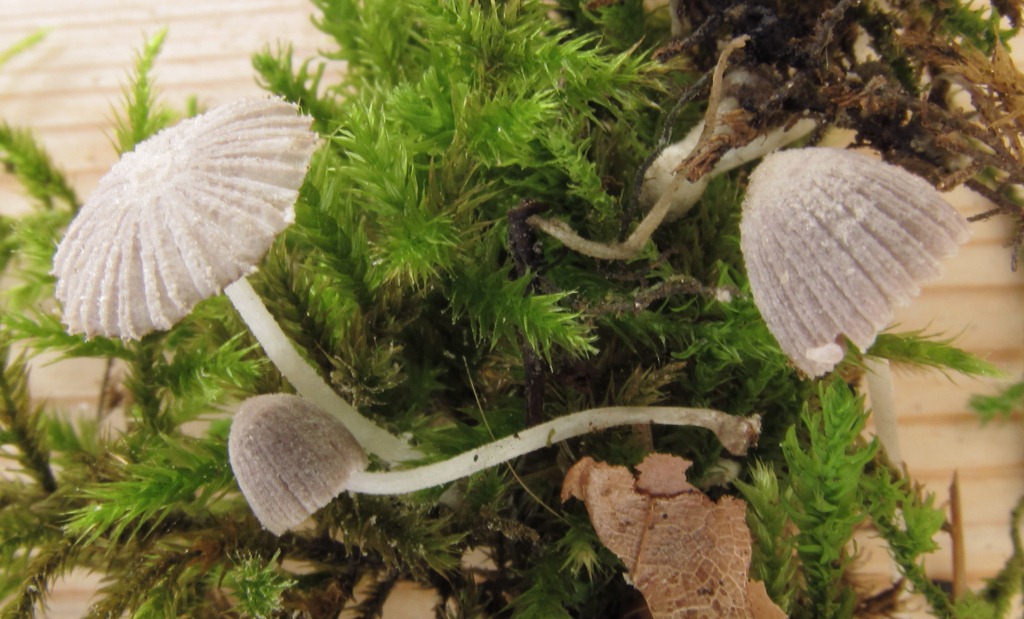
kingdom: Fungi
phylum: Basidiomycota
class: Agaricomycetes
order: Agaricales
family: Psathyrellaceae
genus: Coprinopsis
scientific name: Coprinopsis cortinata
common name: slør-blækhat
